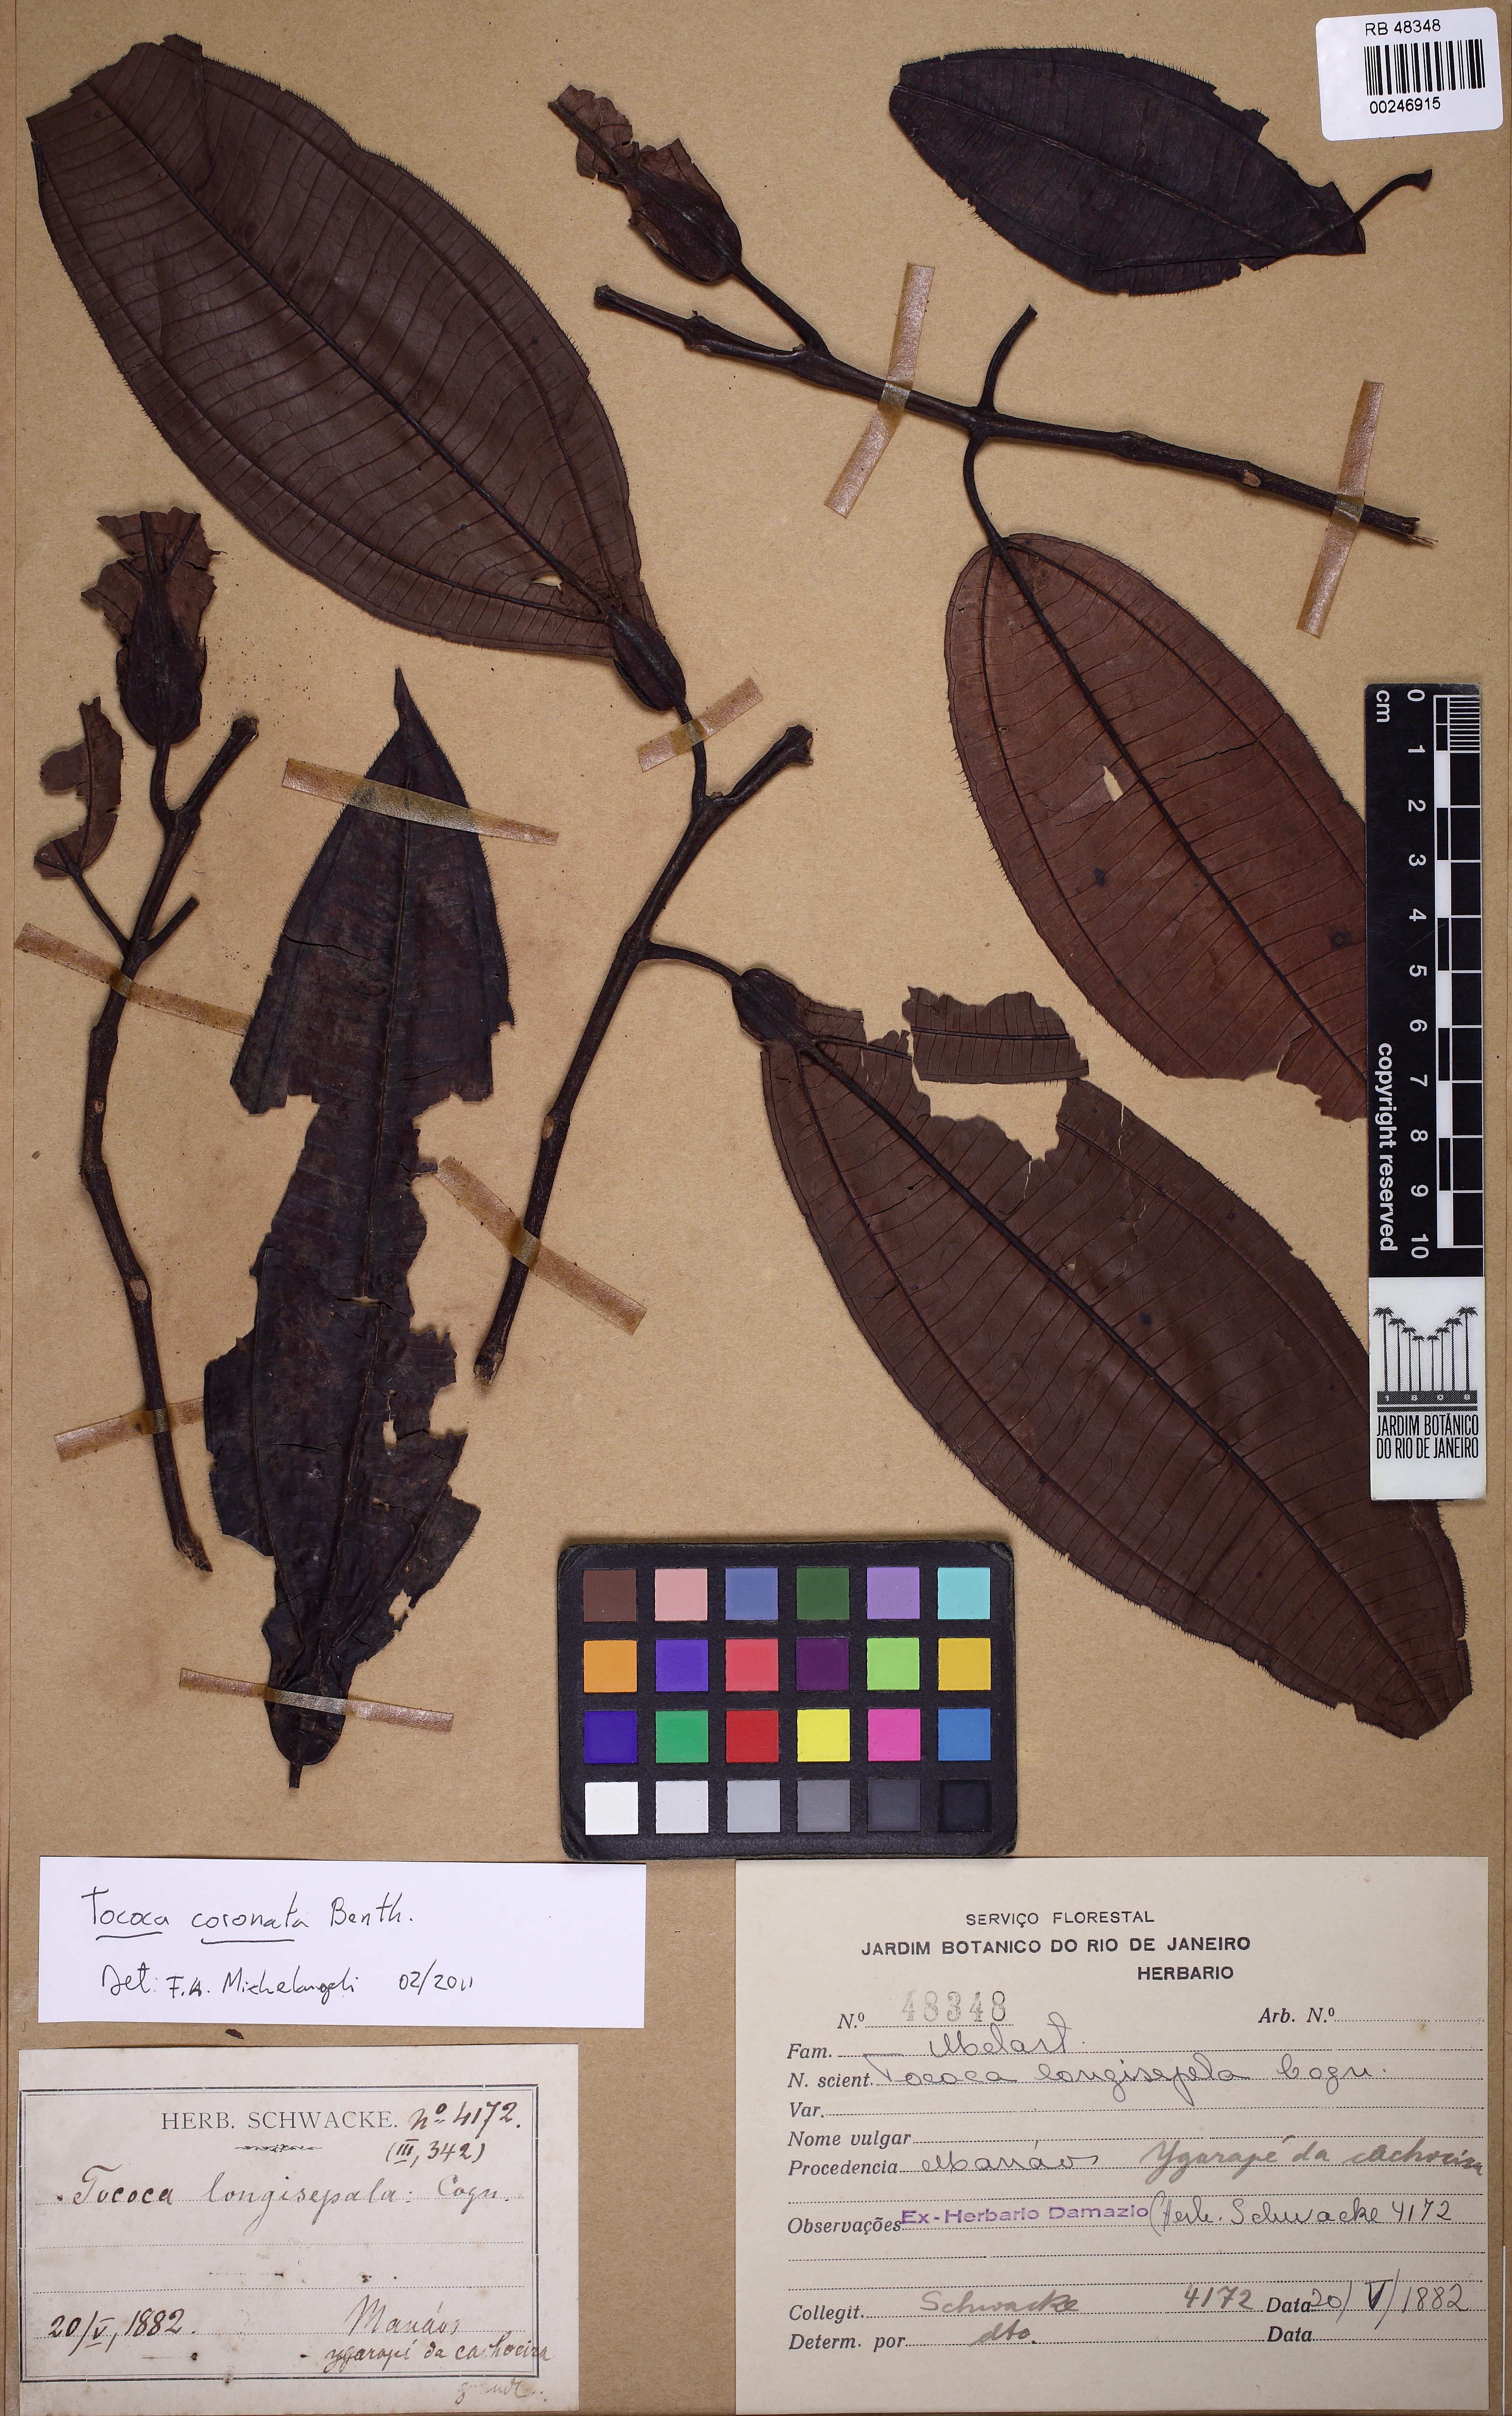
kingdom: Plantae
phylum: Tracheophyta
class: Magnoliopsida
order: Myrtales
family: Melastomataceae
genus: Miconia
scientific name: Miconia tococoronata
